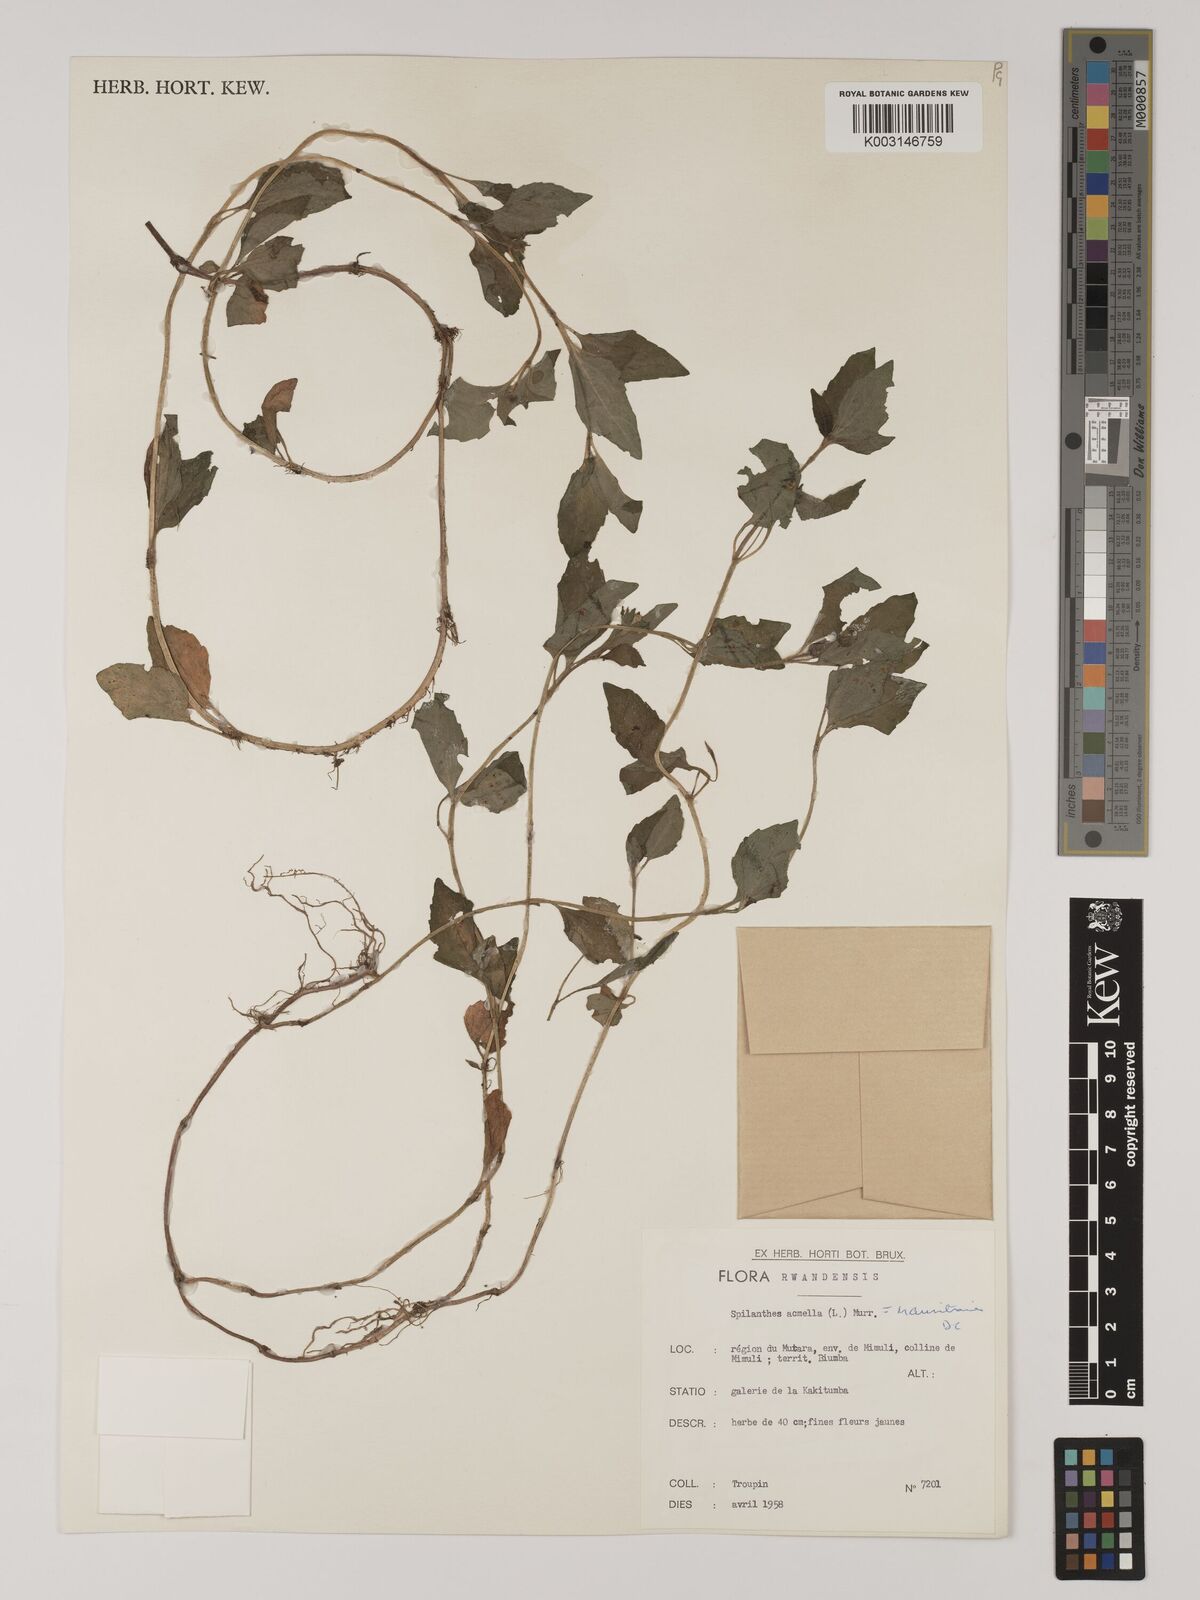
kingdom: Plantae
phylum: Tracheophyta
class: Magnoliopsida
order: Asterales
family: Asteraceae
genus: Blainvillea
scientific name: Blainvillea acmella
